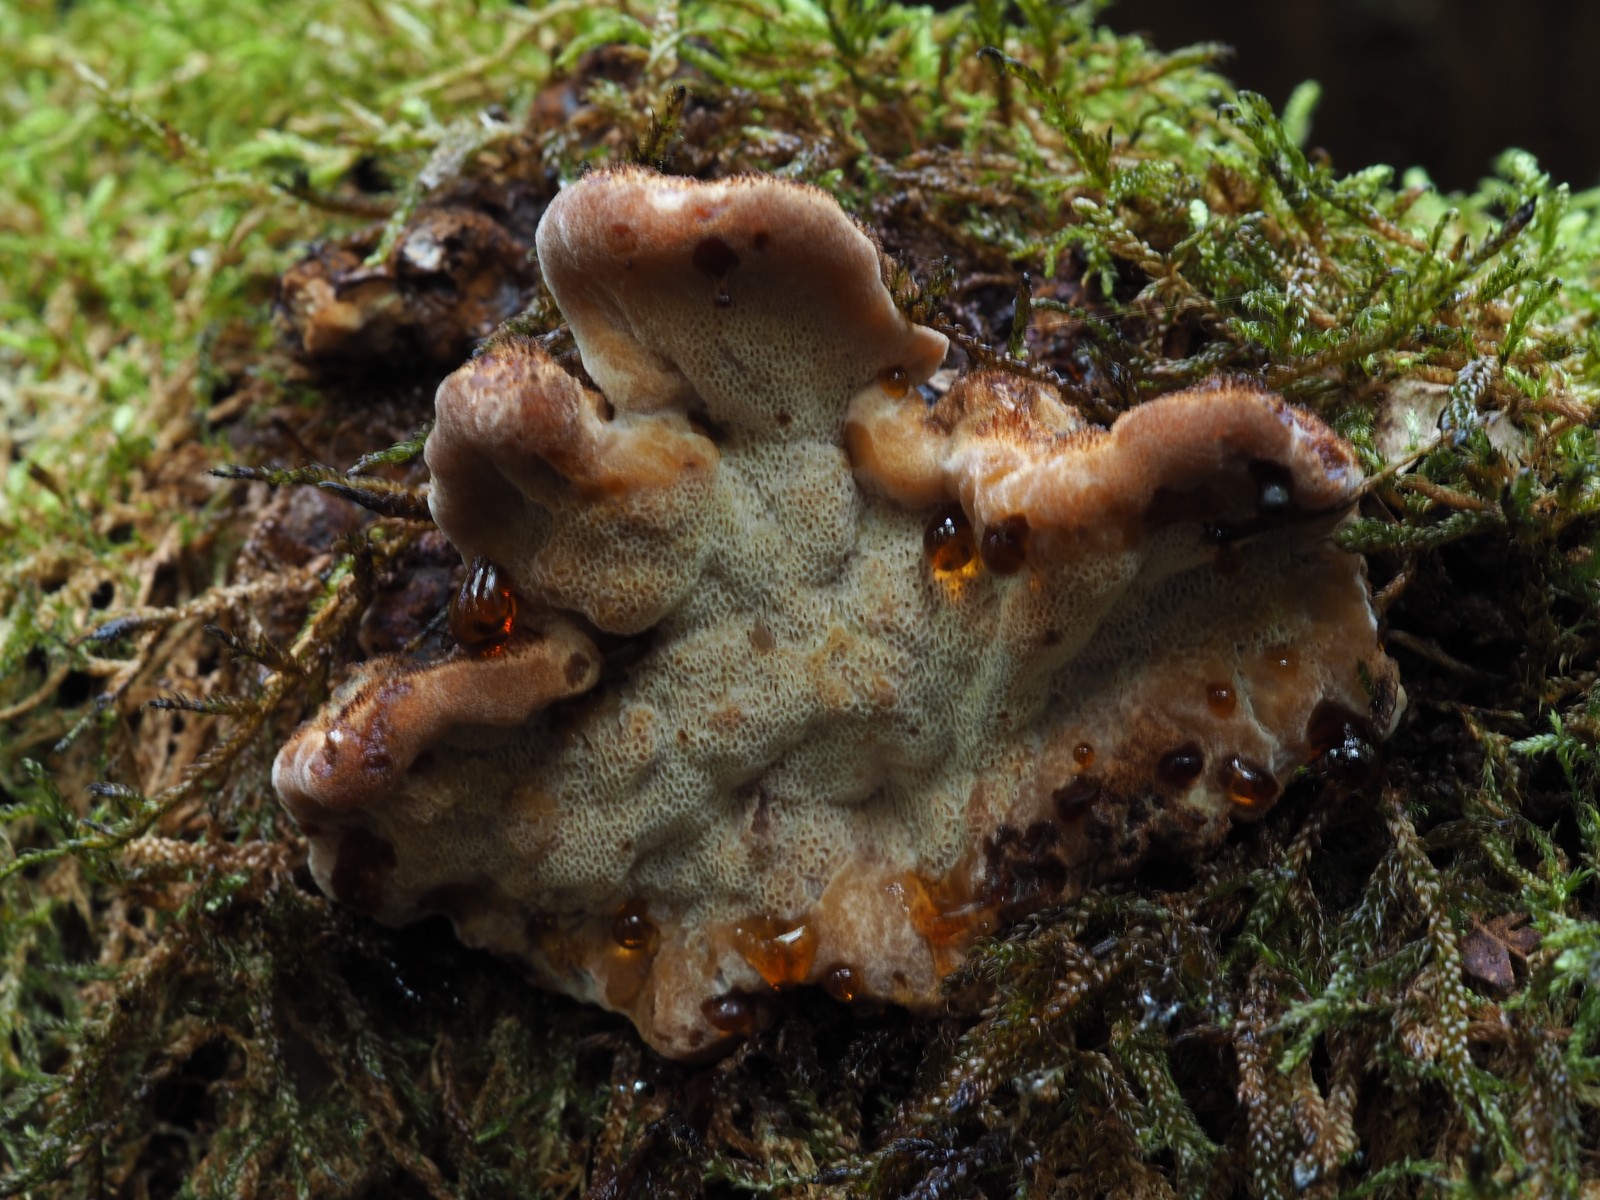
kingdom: Fungi
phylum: Basidiomycota
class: Agaricomycetes
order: Polyporales
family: Ischnodermataceae
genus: Ischnoderma
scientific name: Ischnoderma benzoinum
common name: gran-tjæreporesvamp
